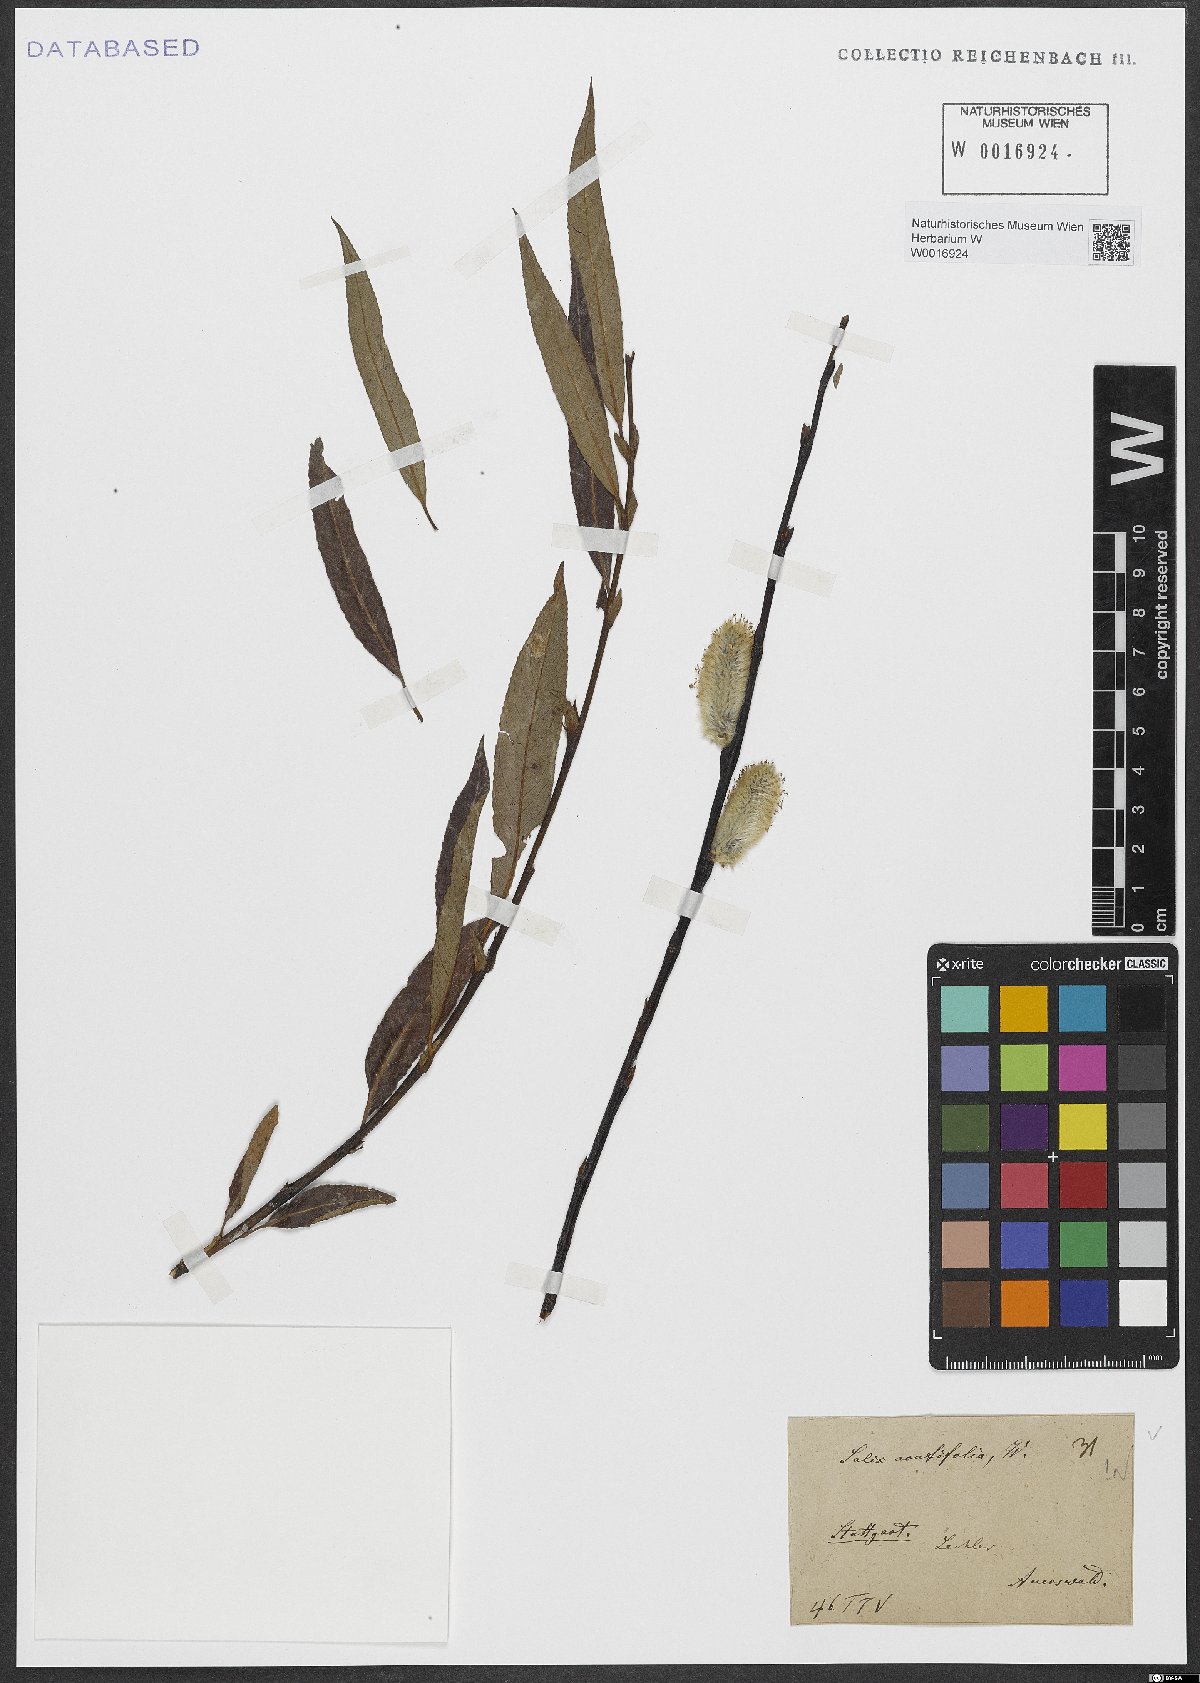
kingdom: Plantae
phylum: Tracheophyta
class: Magnoliopsida
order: Malpighiales
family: Salicaceae
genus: Salix
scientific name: Salix acutifolia
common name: Siberian violet-willow
